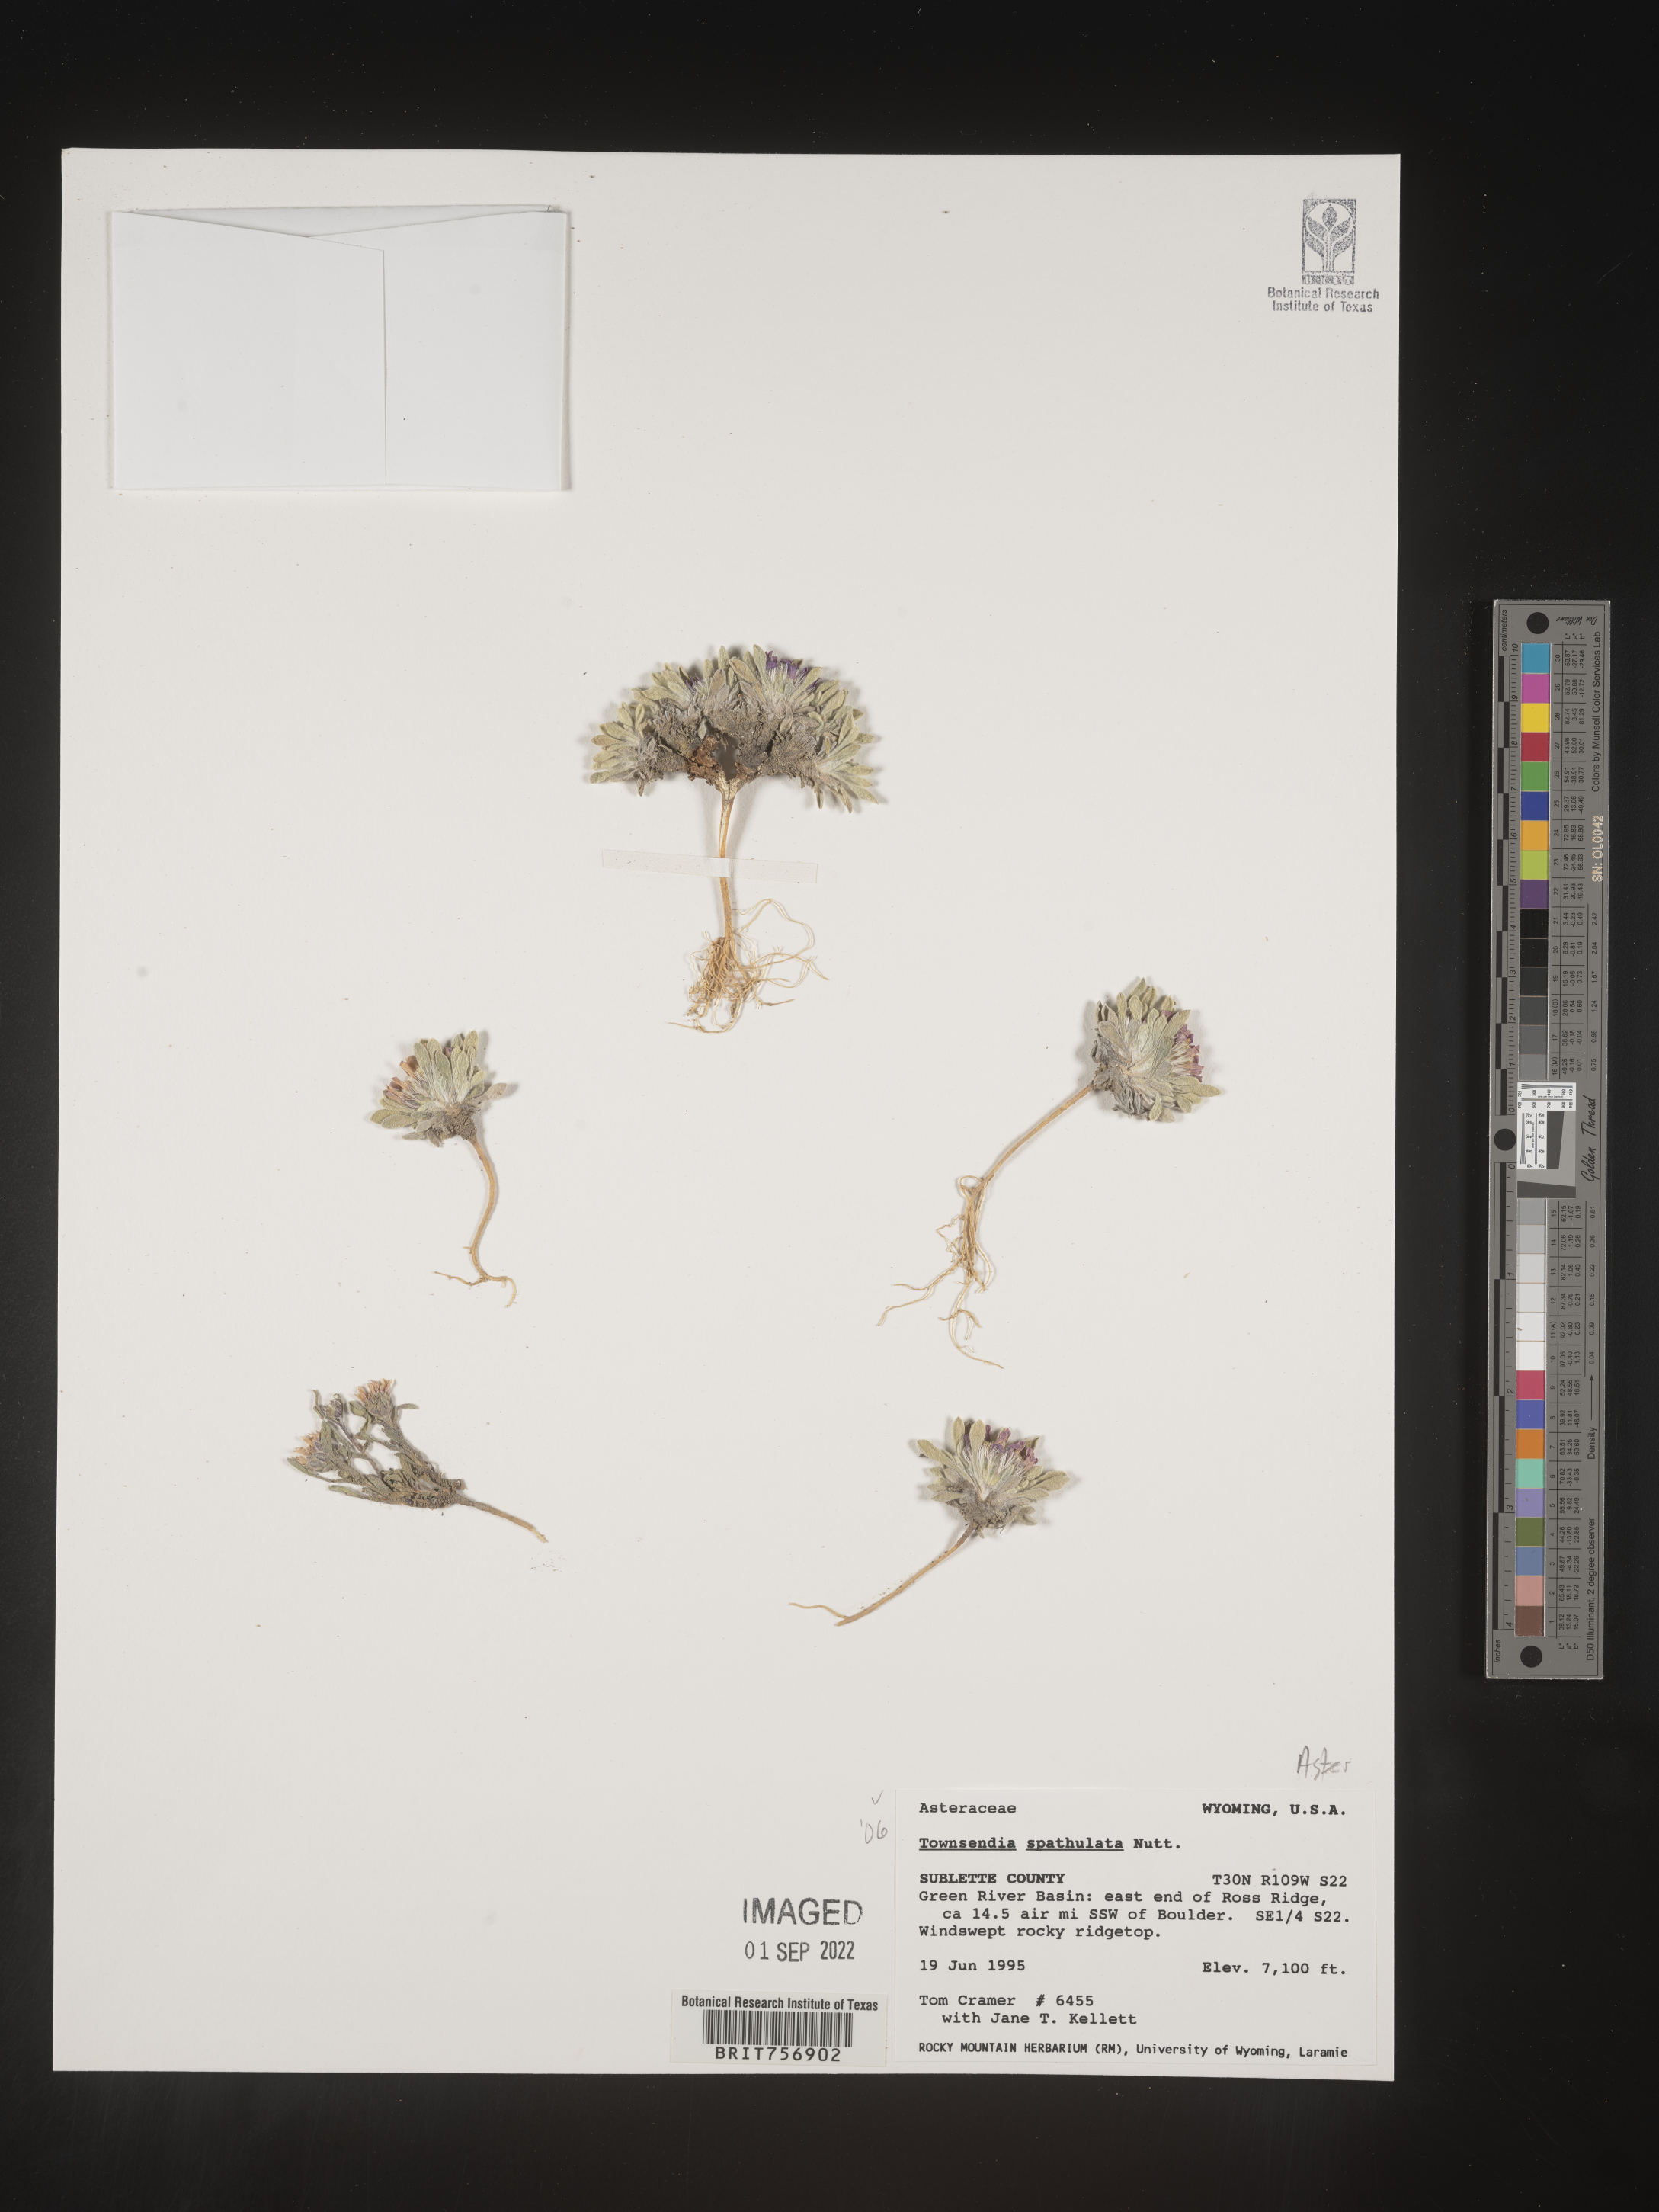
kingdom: Plantae
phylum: Tracheophyta
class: Magnoliopsida
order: Asterales
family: Asteraceae
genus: Townsendia
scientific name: Townsendia spathulata
